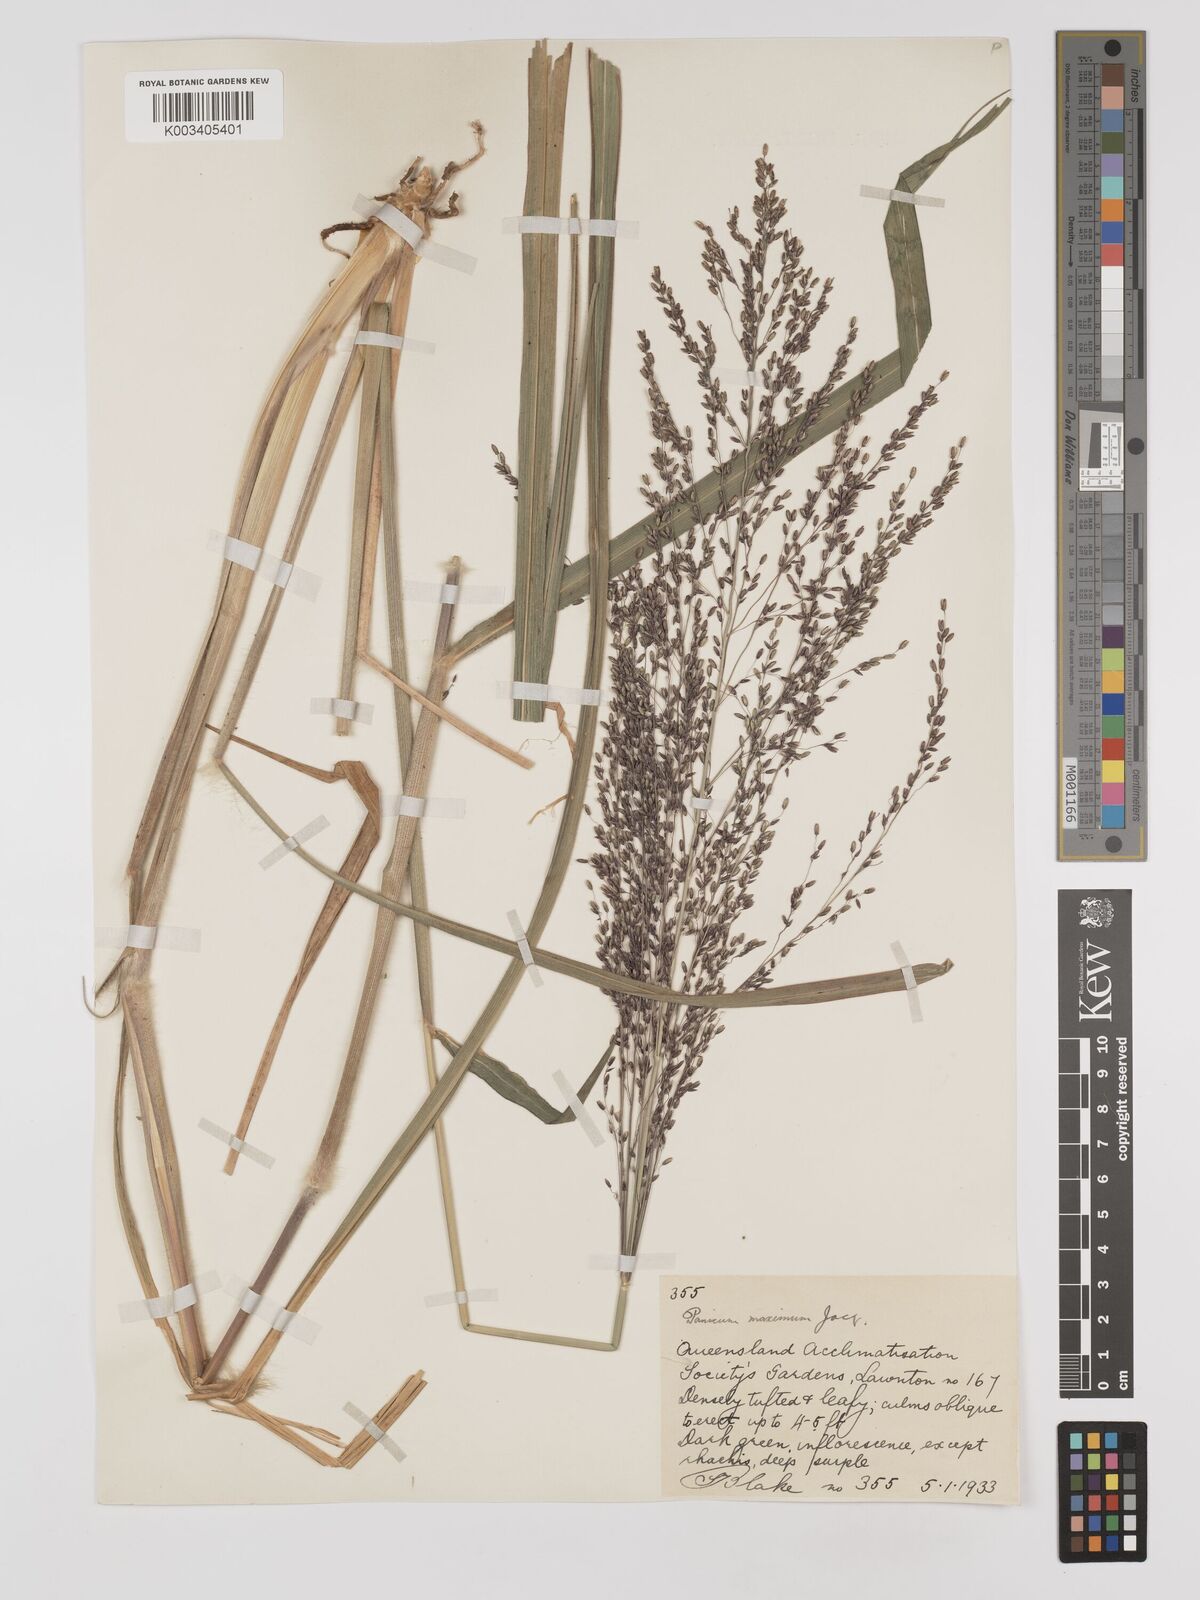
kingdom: Plantae
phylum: Tracheophyta
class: Liliopsida
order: Poales
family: Poaceae
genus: Megathyrsus
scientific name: Megathyrsus maximus
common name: Guineagrass
